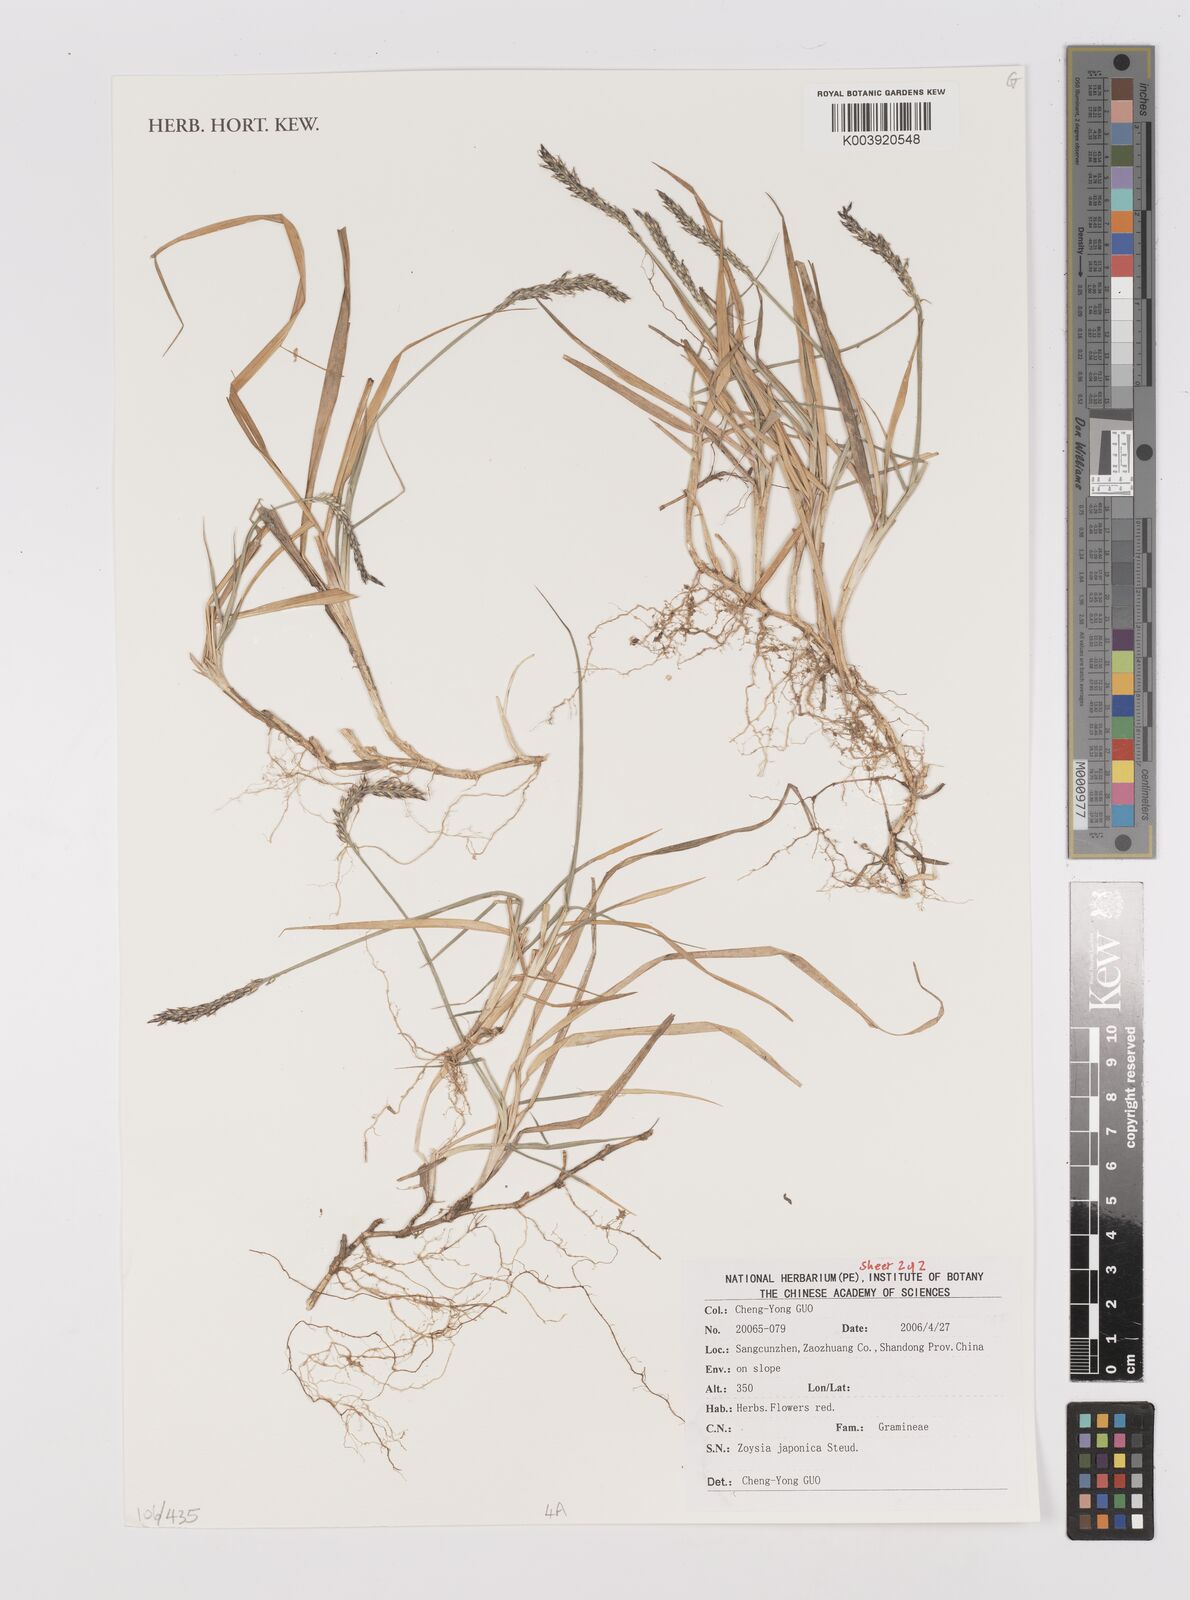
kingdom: Plantae
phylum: Tracheophyta
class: Liliopsida
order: Poales
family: Poaceae
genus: Zoysia
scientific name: Zoysia japonica
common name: Korean lawngrass
